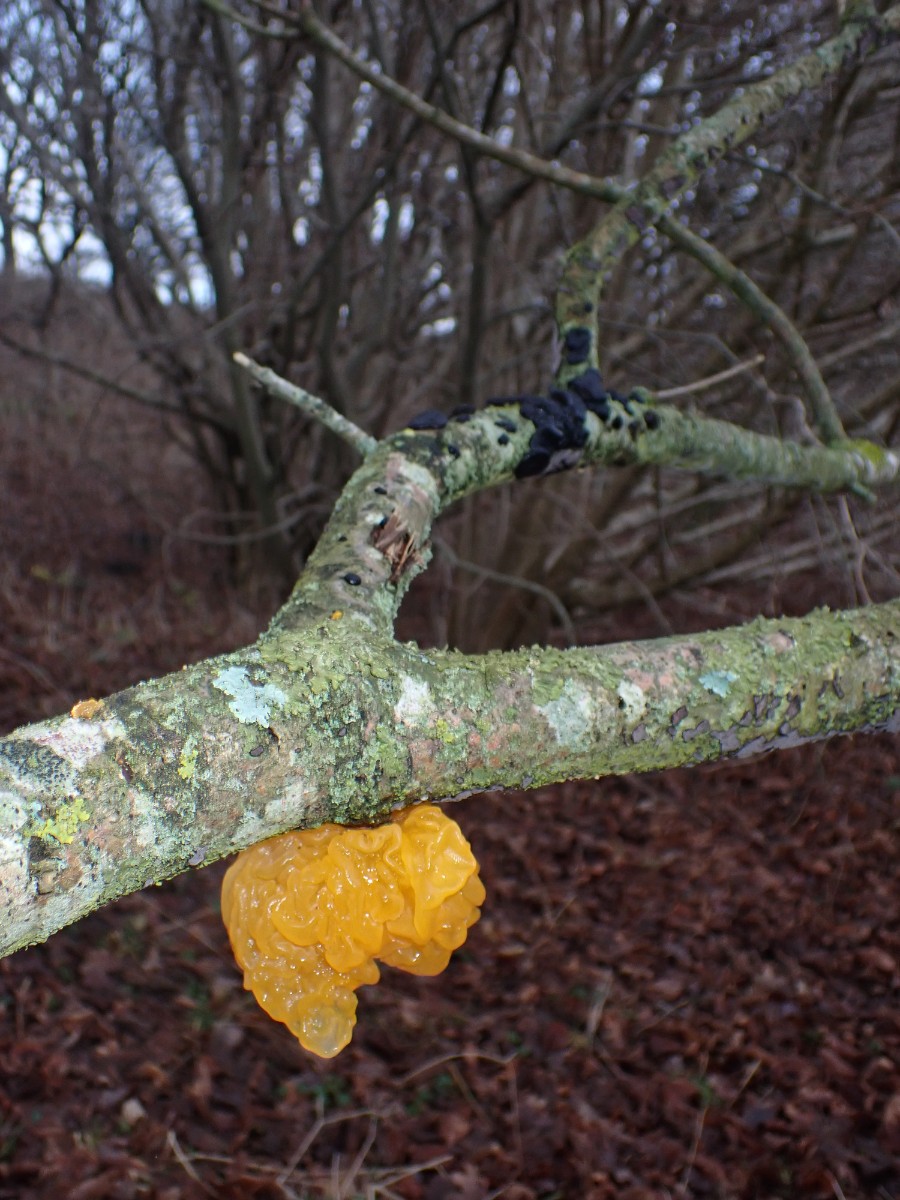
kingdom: Fungi
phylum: Basidiomycota
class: Tremellomycetes
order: Tremellales
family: Tremellaceae
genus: Tremella
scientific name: Tremella mesenterica
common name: gul bævresvamp
